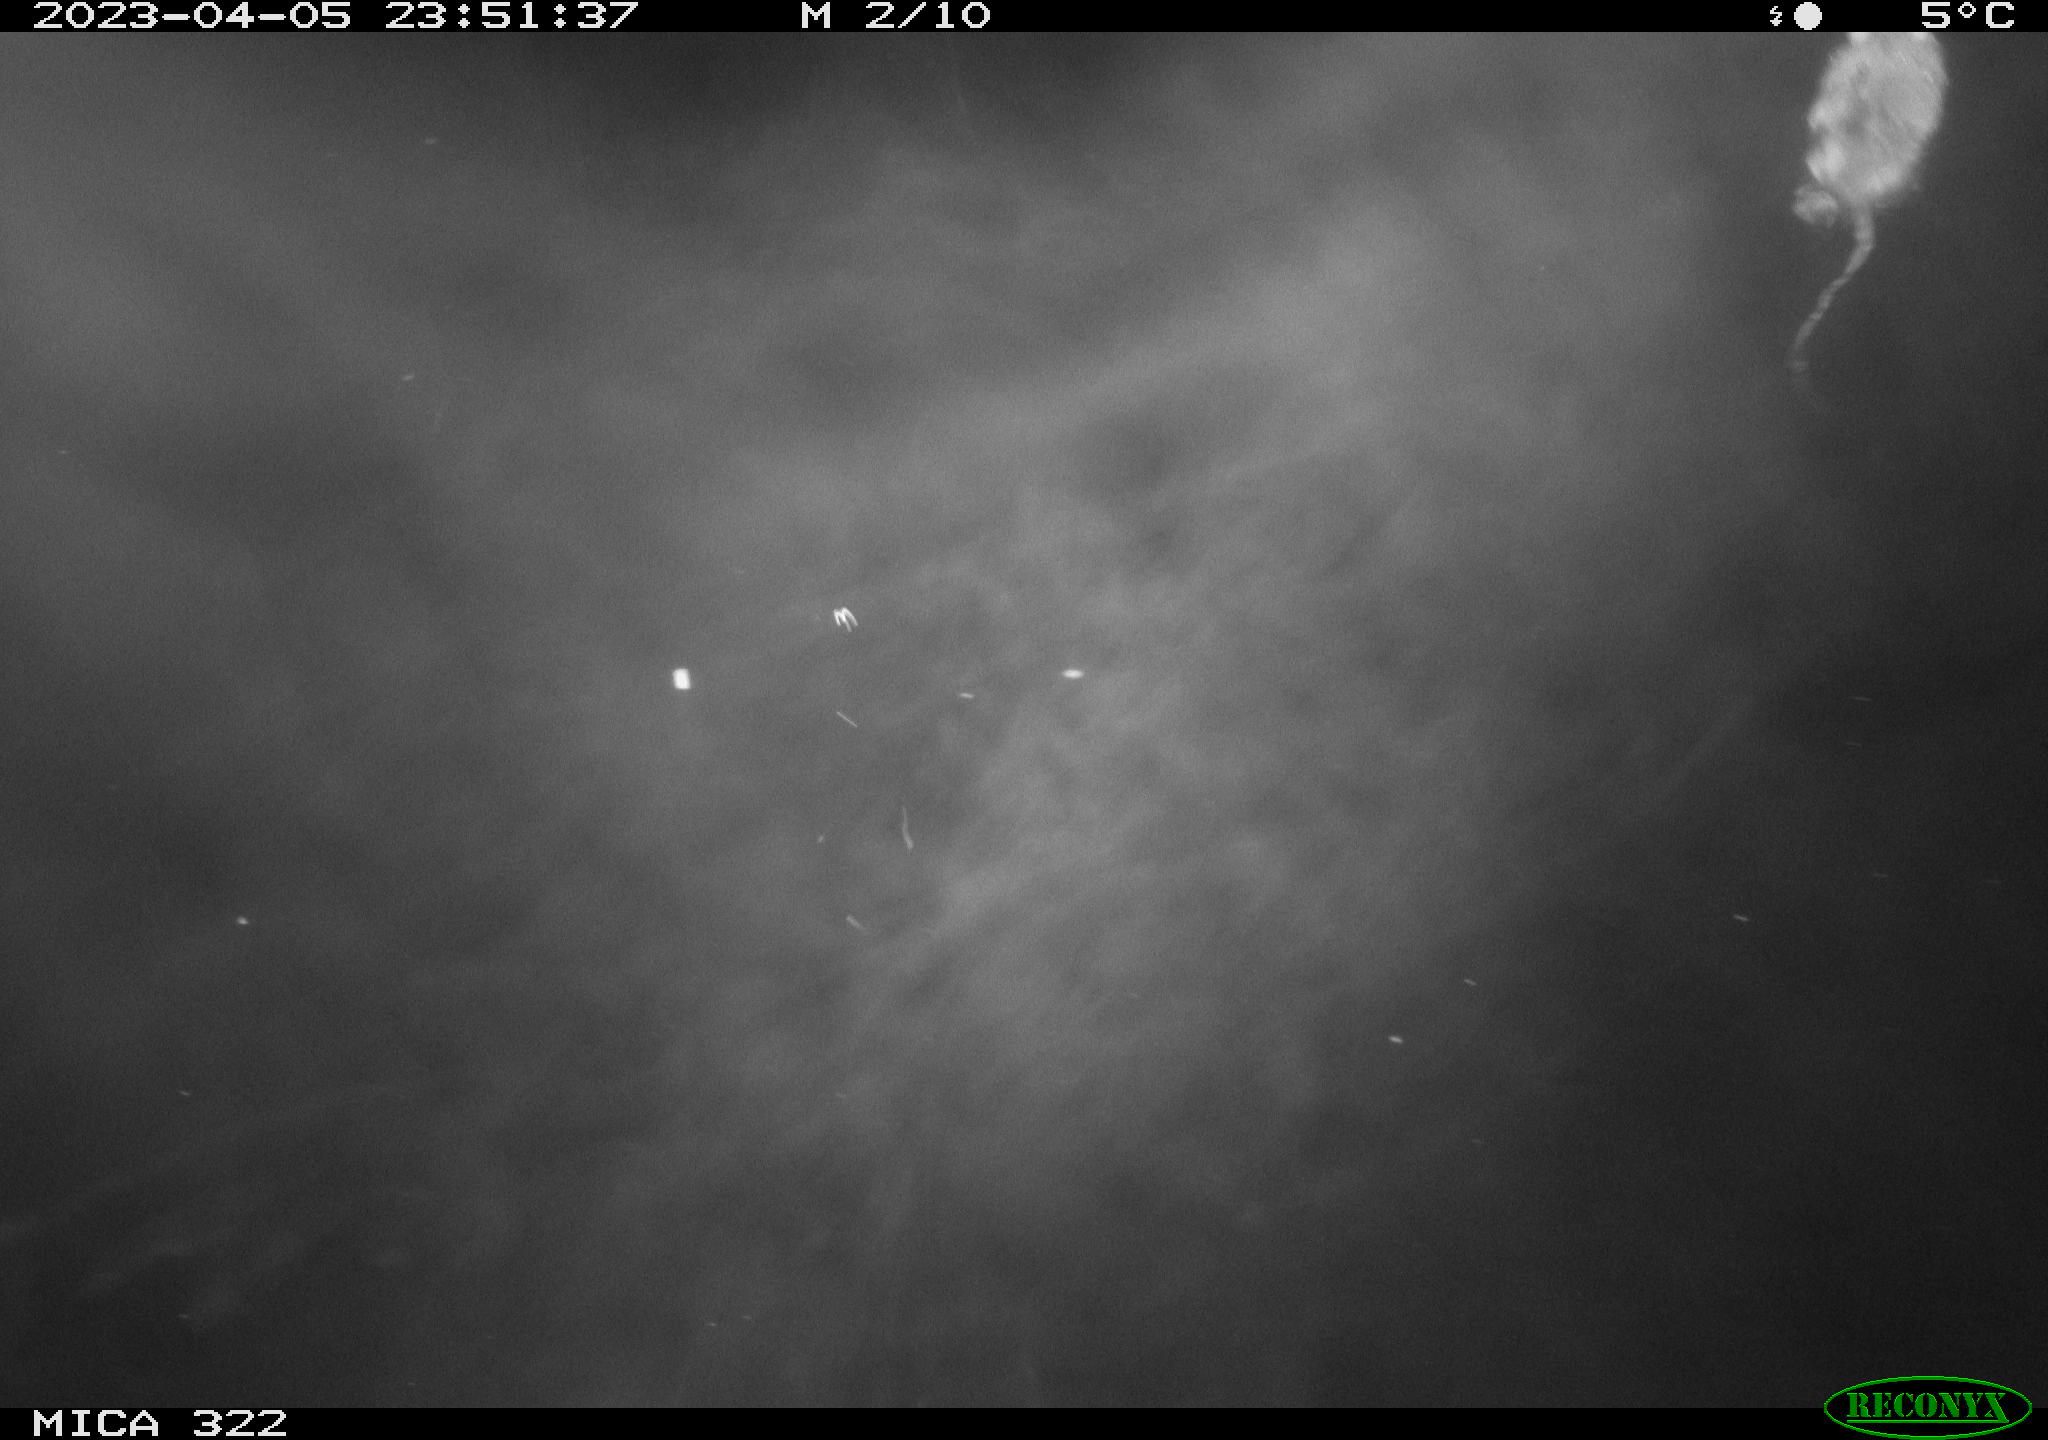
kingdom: Animalia
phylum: Chordata
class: Mammalia
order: Rodentia
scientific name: Rodentia
